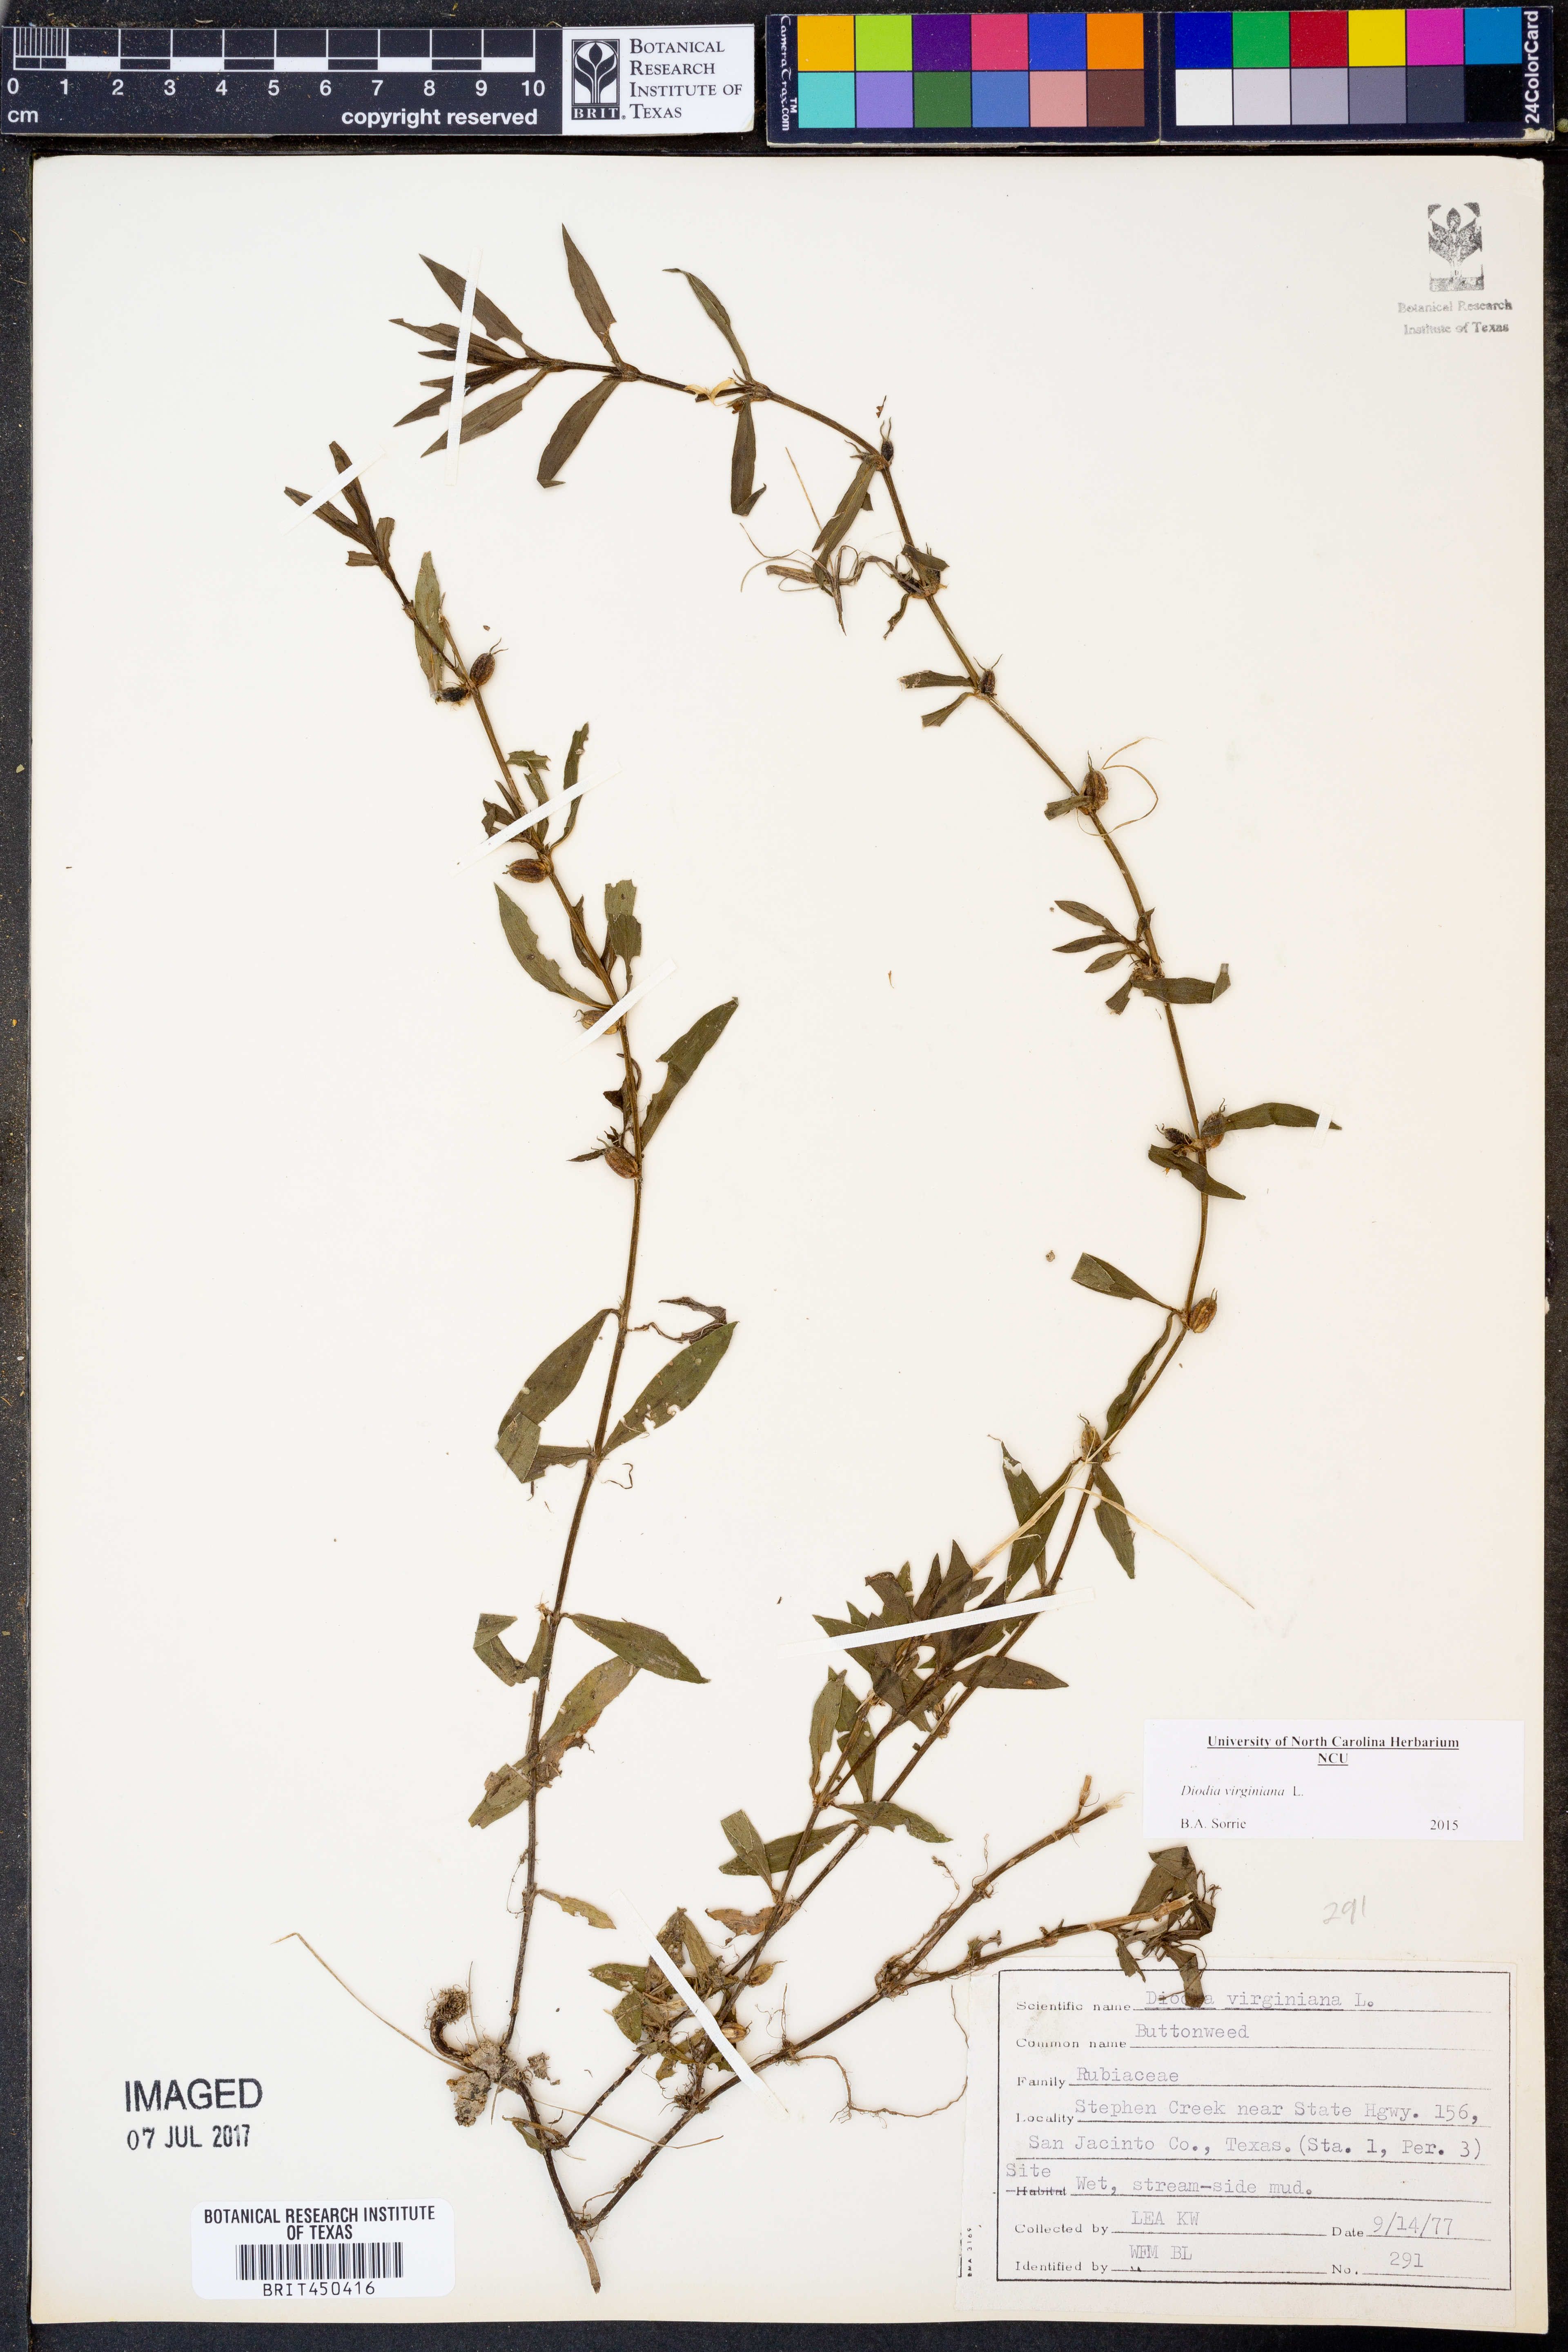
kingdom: Plantae
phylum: Tracheophyta
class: Magnoliopsida
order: Gentianales
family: Rubiaceae
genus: Diodia
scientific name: Diodia virginiana
